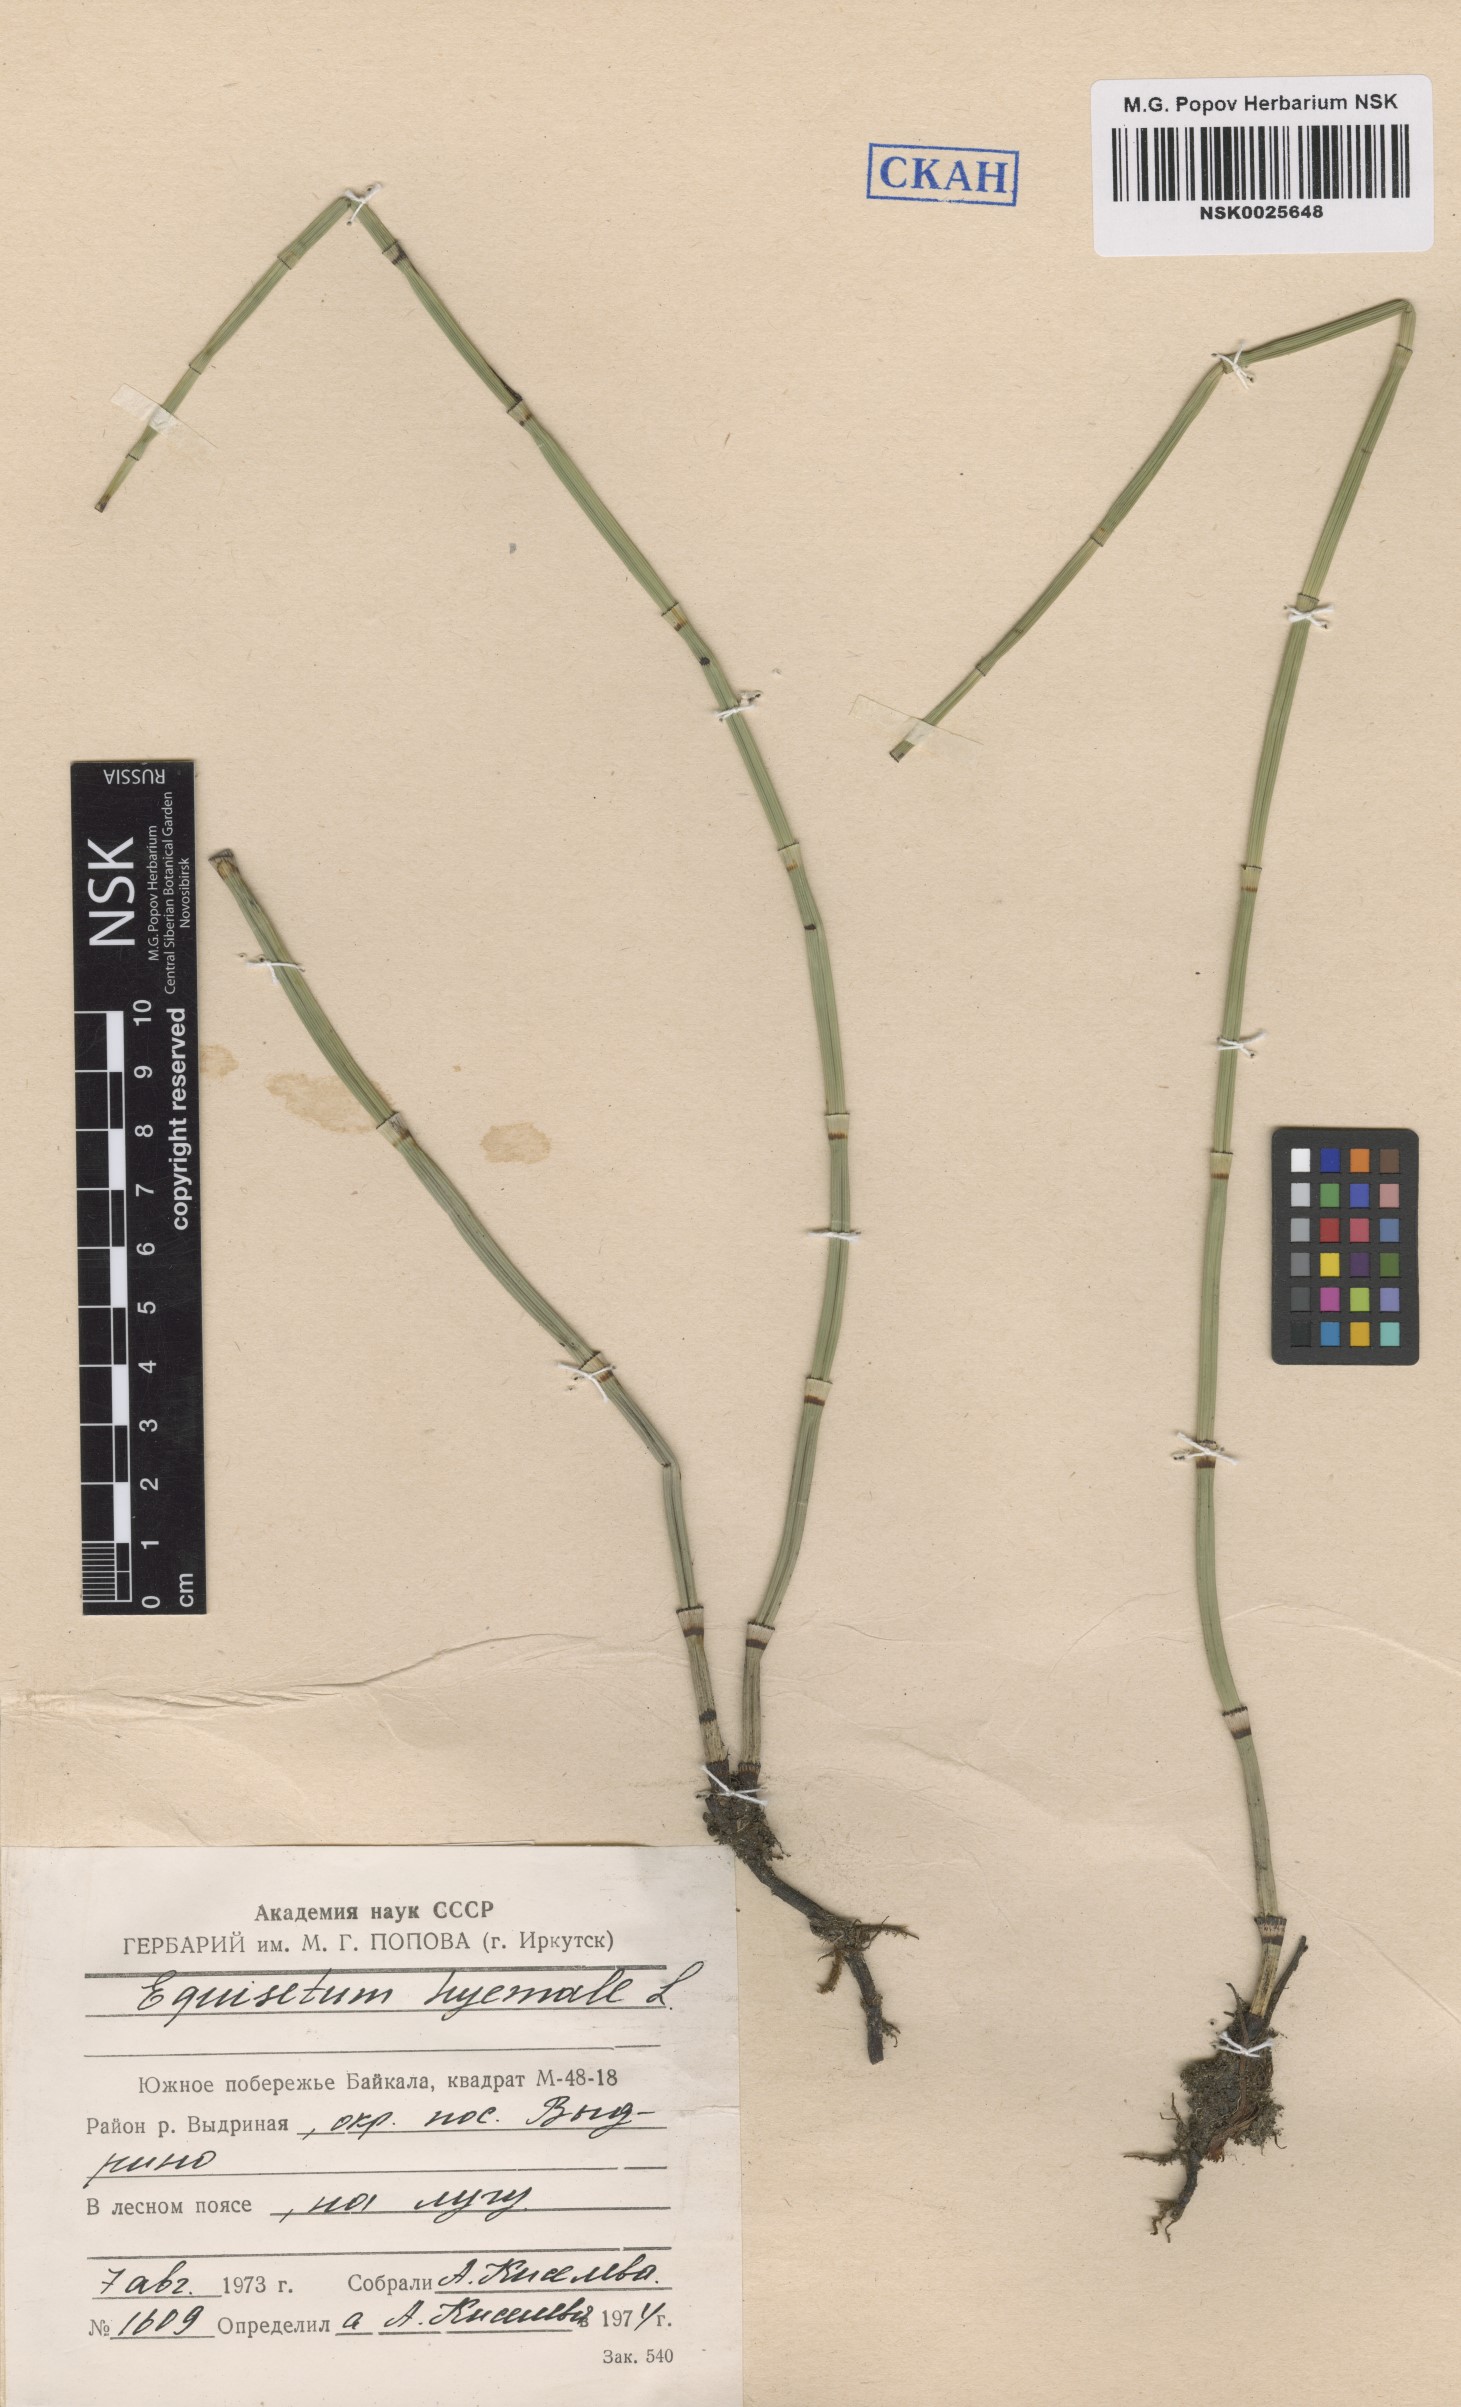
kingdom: Plantae
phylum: Tracheophyta
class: Polypodiopsida
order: Equisetales
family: Equisetaceae
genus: Equisetum
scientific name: Equisetum hyemale
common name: Rough horsetail
